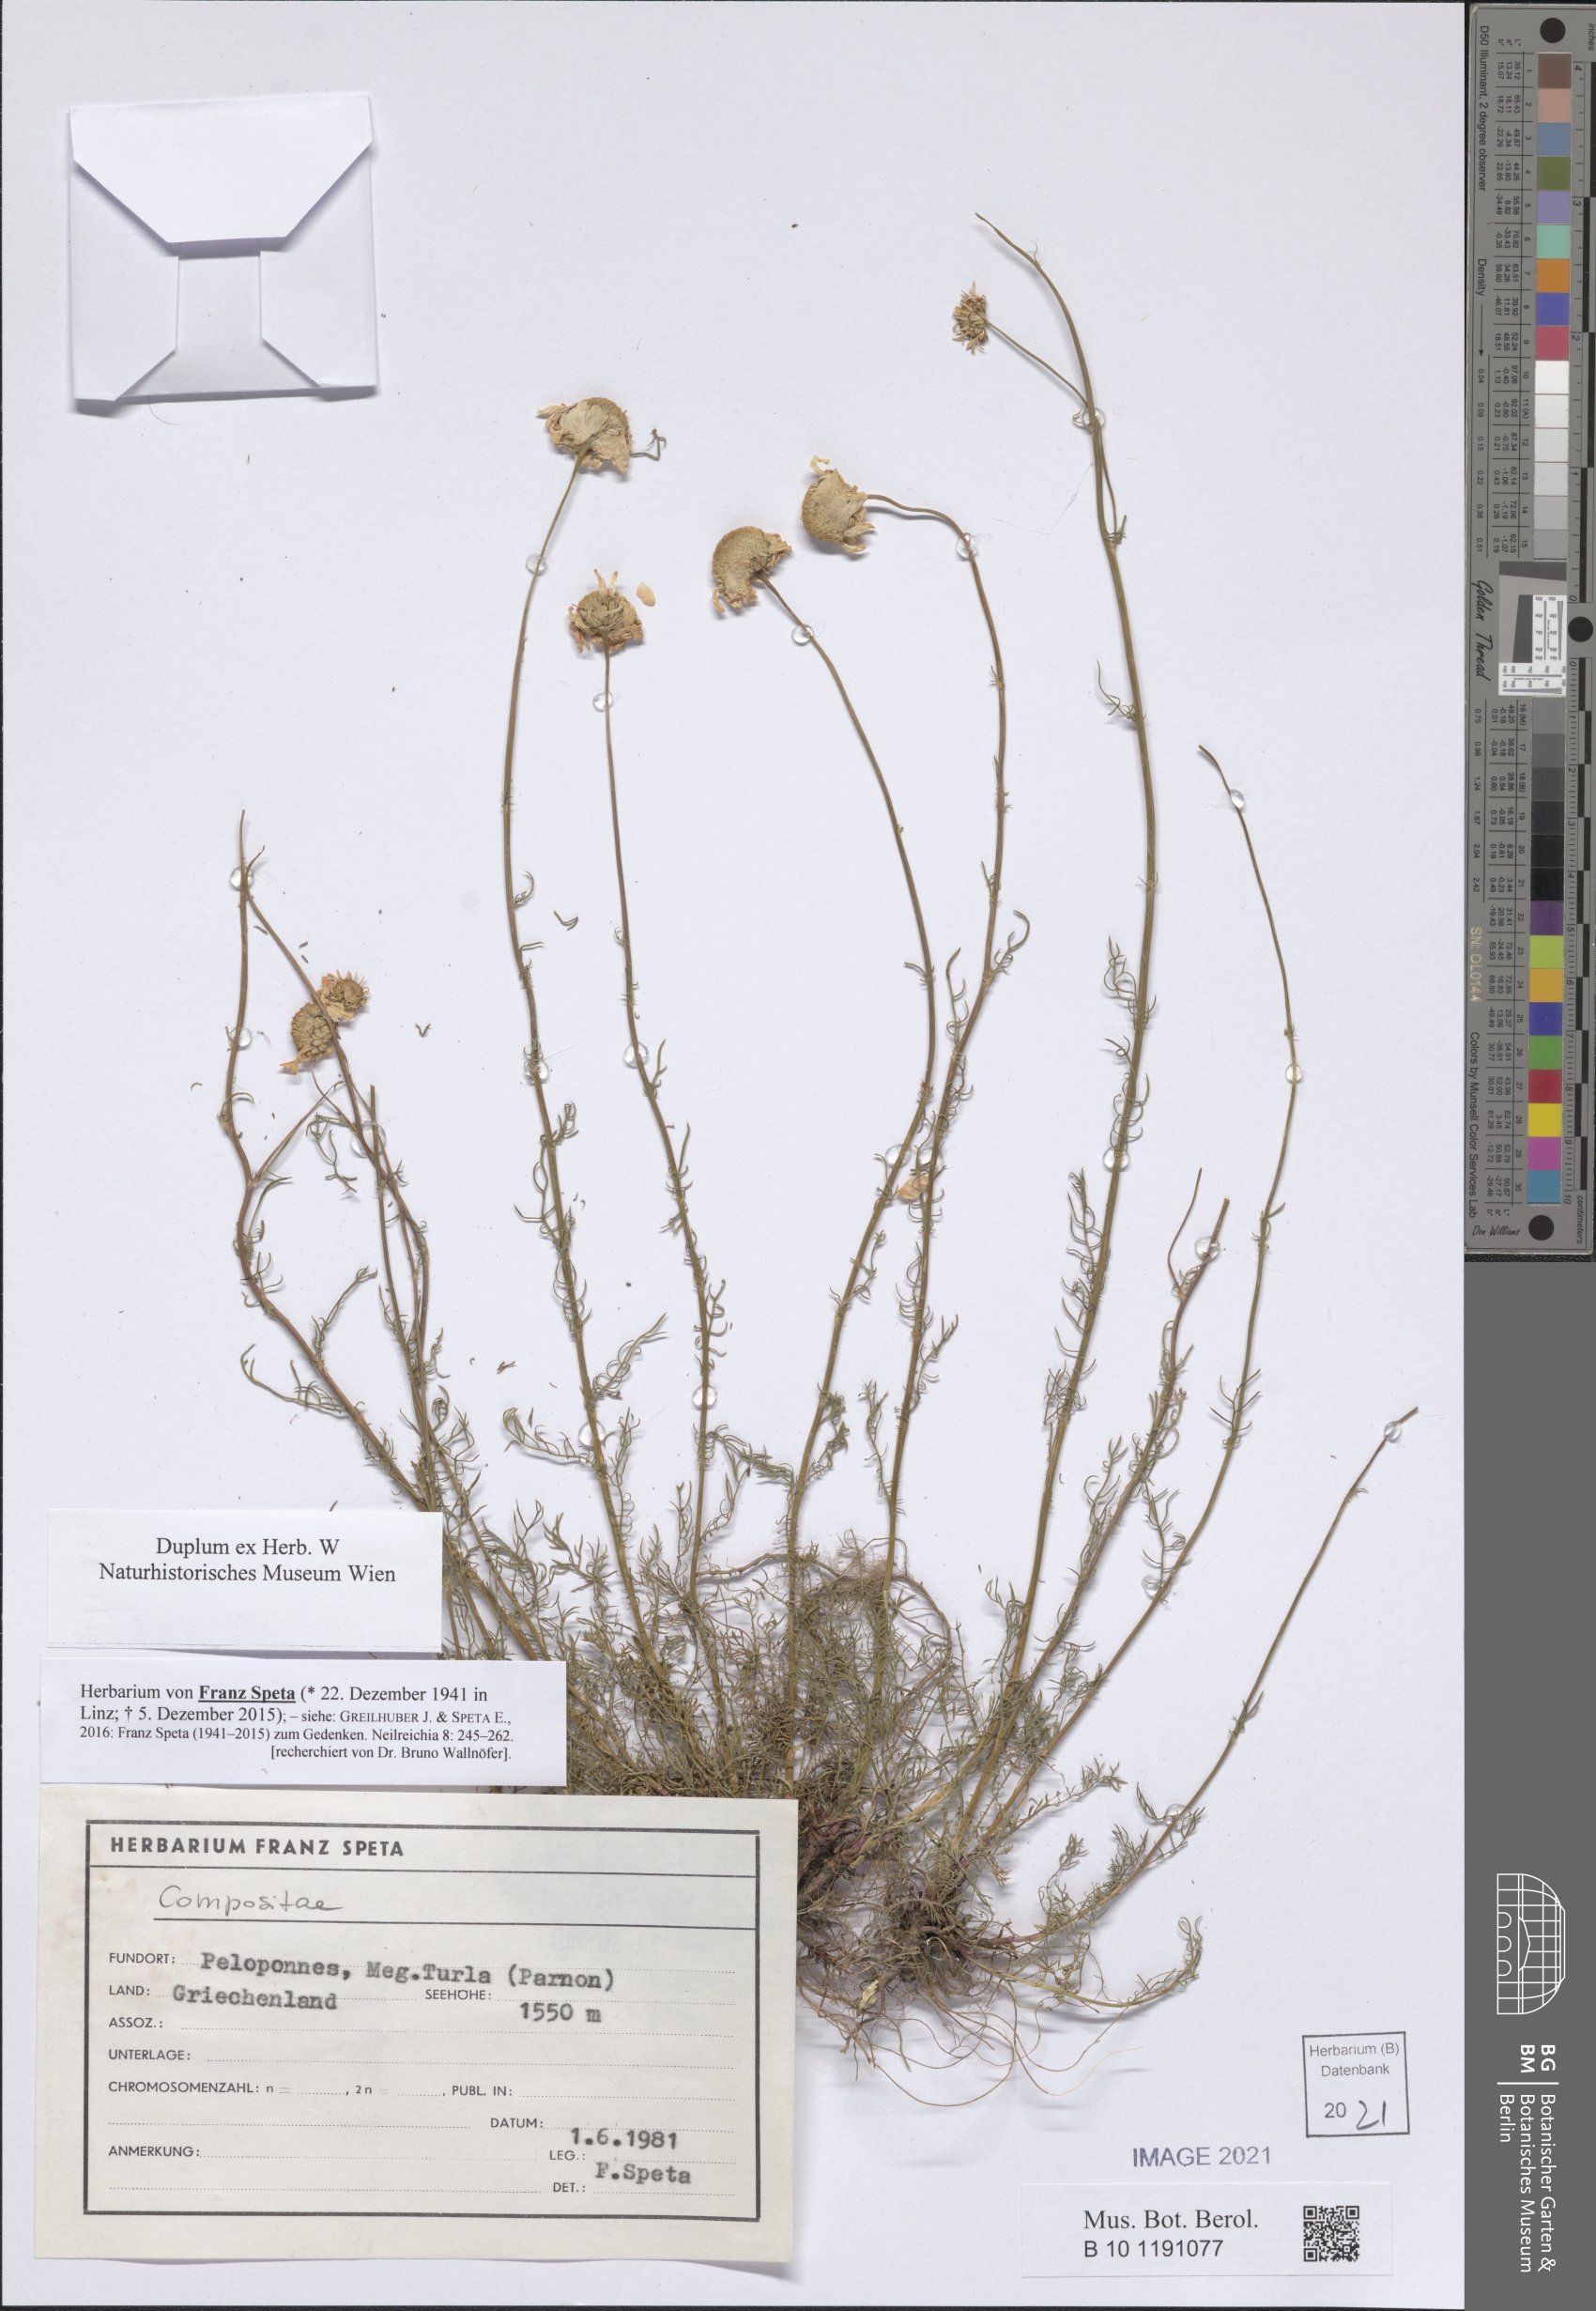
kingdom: Plantae
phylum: Tracheophyta
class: Magnoliopsida
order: Asterales
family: Asteraceae
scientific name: Asteraceae
